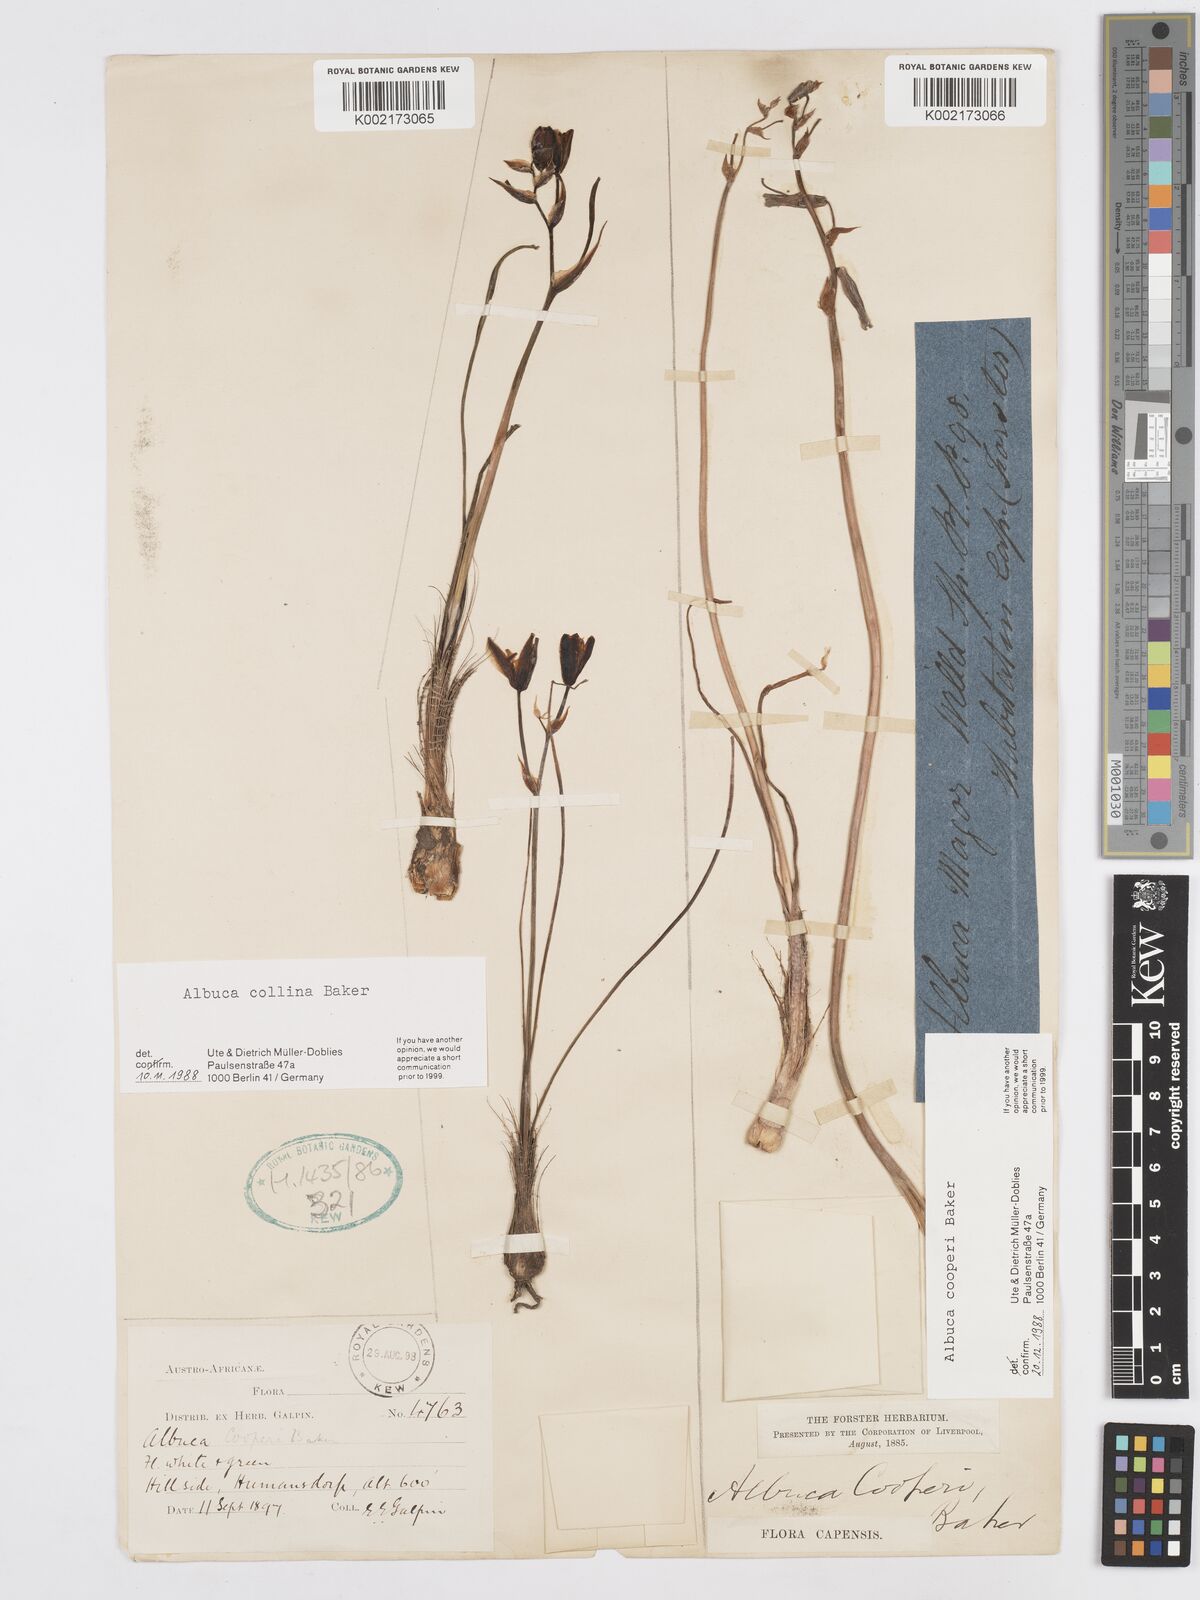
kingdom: Plantae
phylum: Tracheophyta
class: Liliopsida
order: Asparagales
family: Asparagaceae
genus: Albuca
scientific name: Albuca collina
